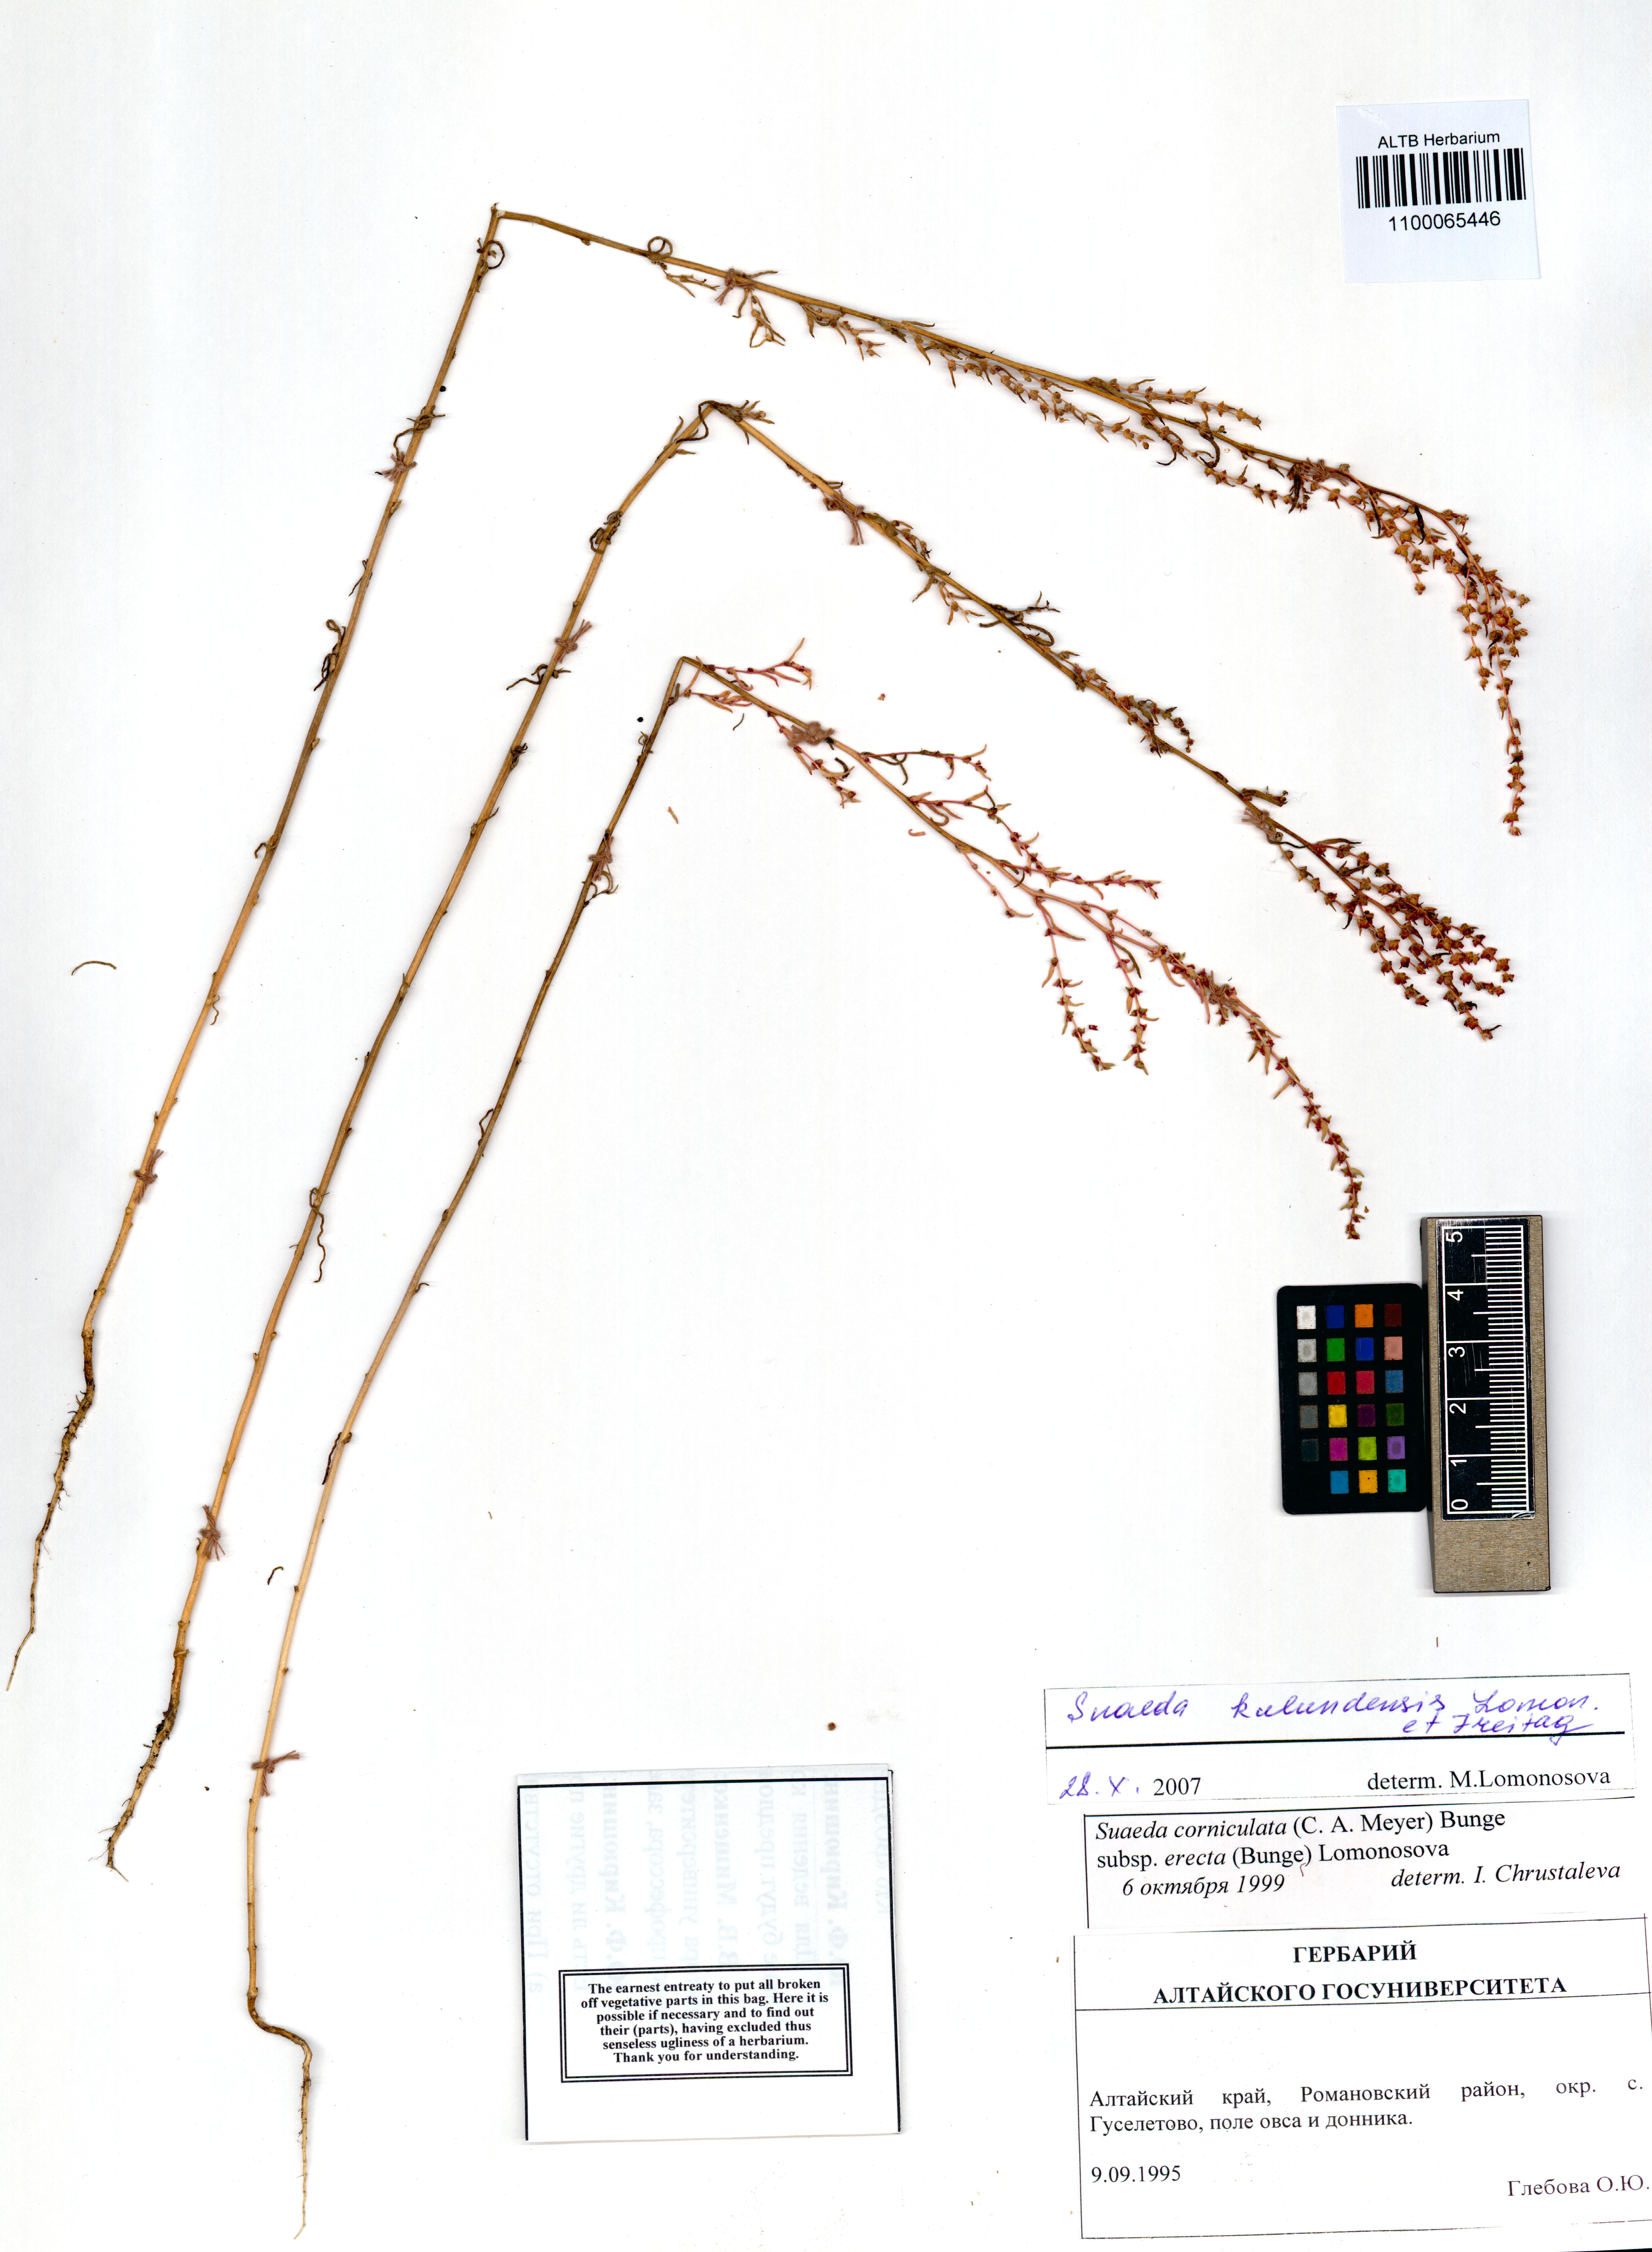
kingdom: Plantae
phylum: Tracheophyta
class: Magnoliopsida
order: Caryophyllales
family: Amaranthaceae
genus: Suaeda
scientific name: Suaeda kulundensis
